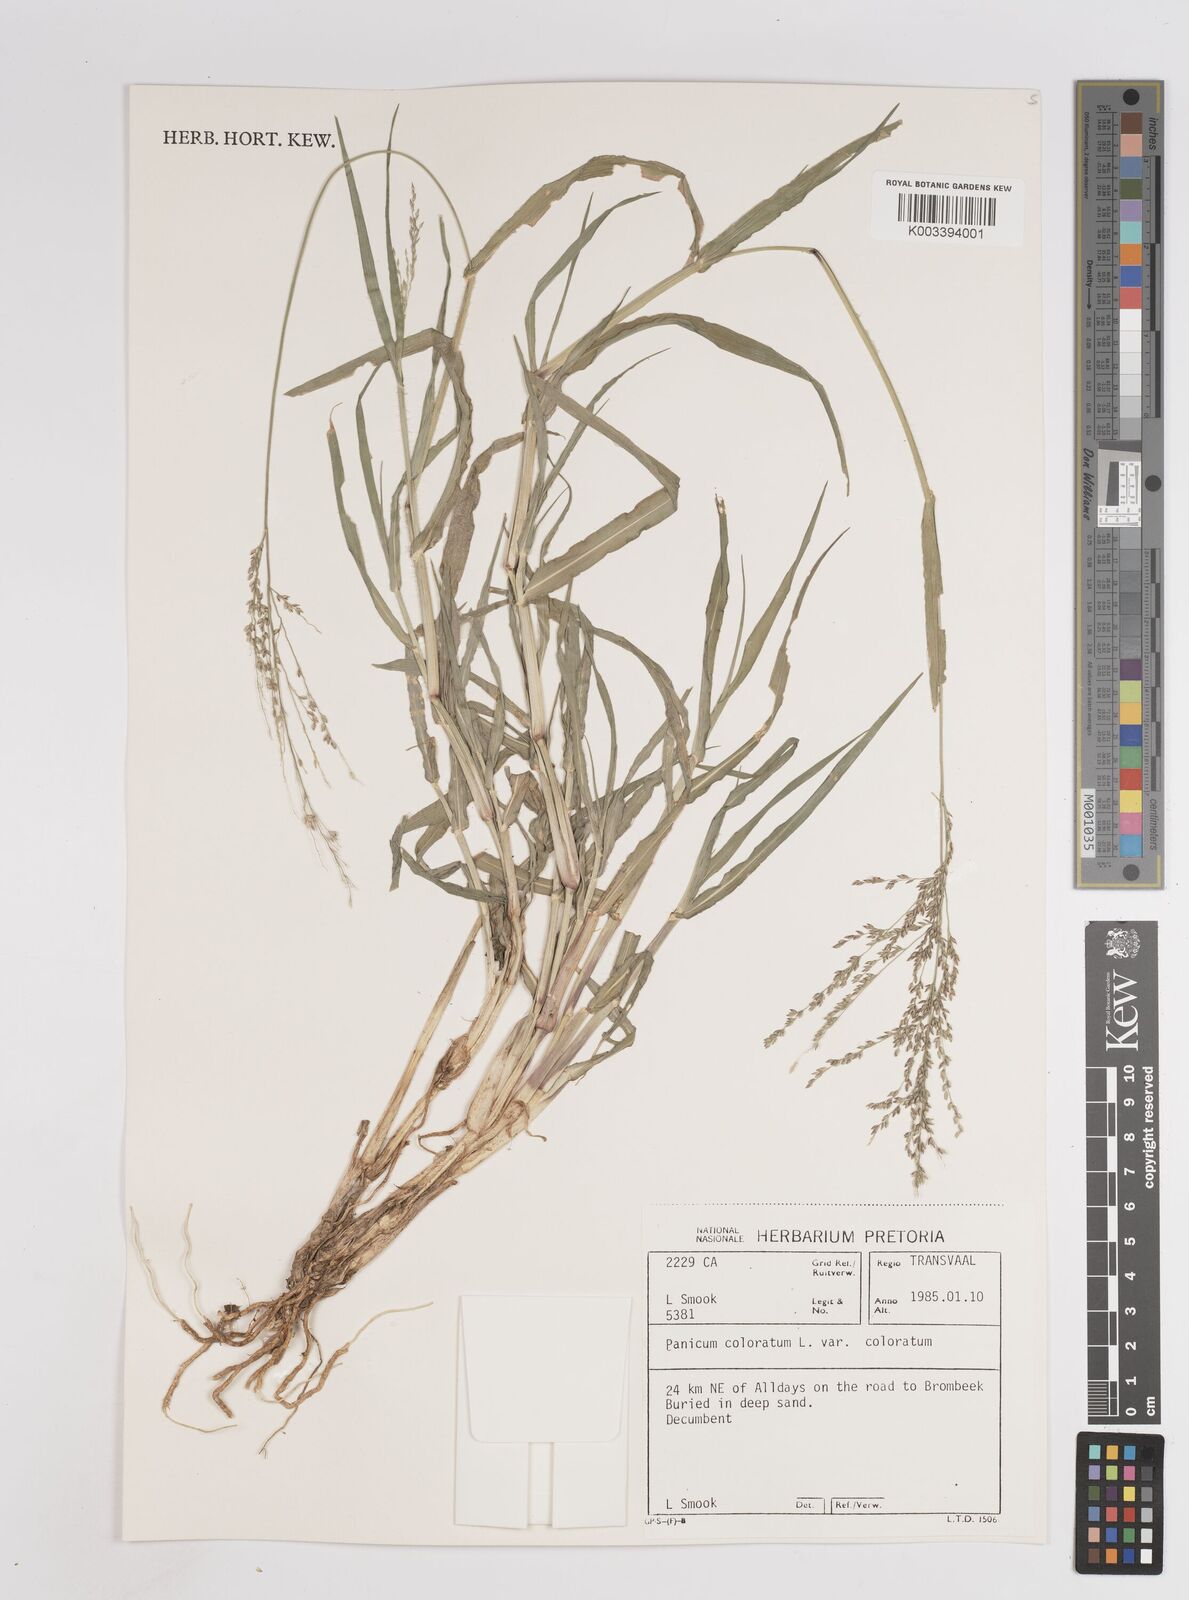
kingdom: Plantae
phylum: Tracheophyta
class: Liliopsida
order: Poales
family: Poaceae
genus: Panicum
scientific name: Panicum coloratum
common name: Kleingrass
